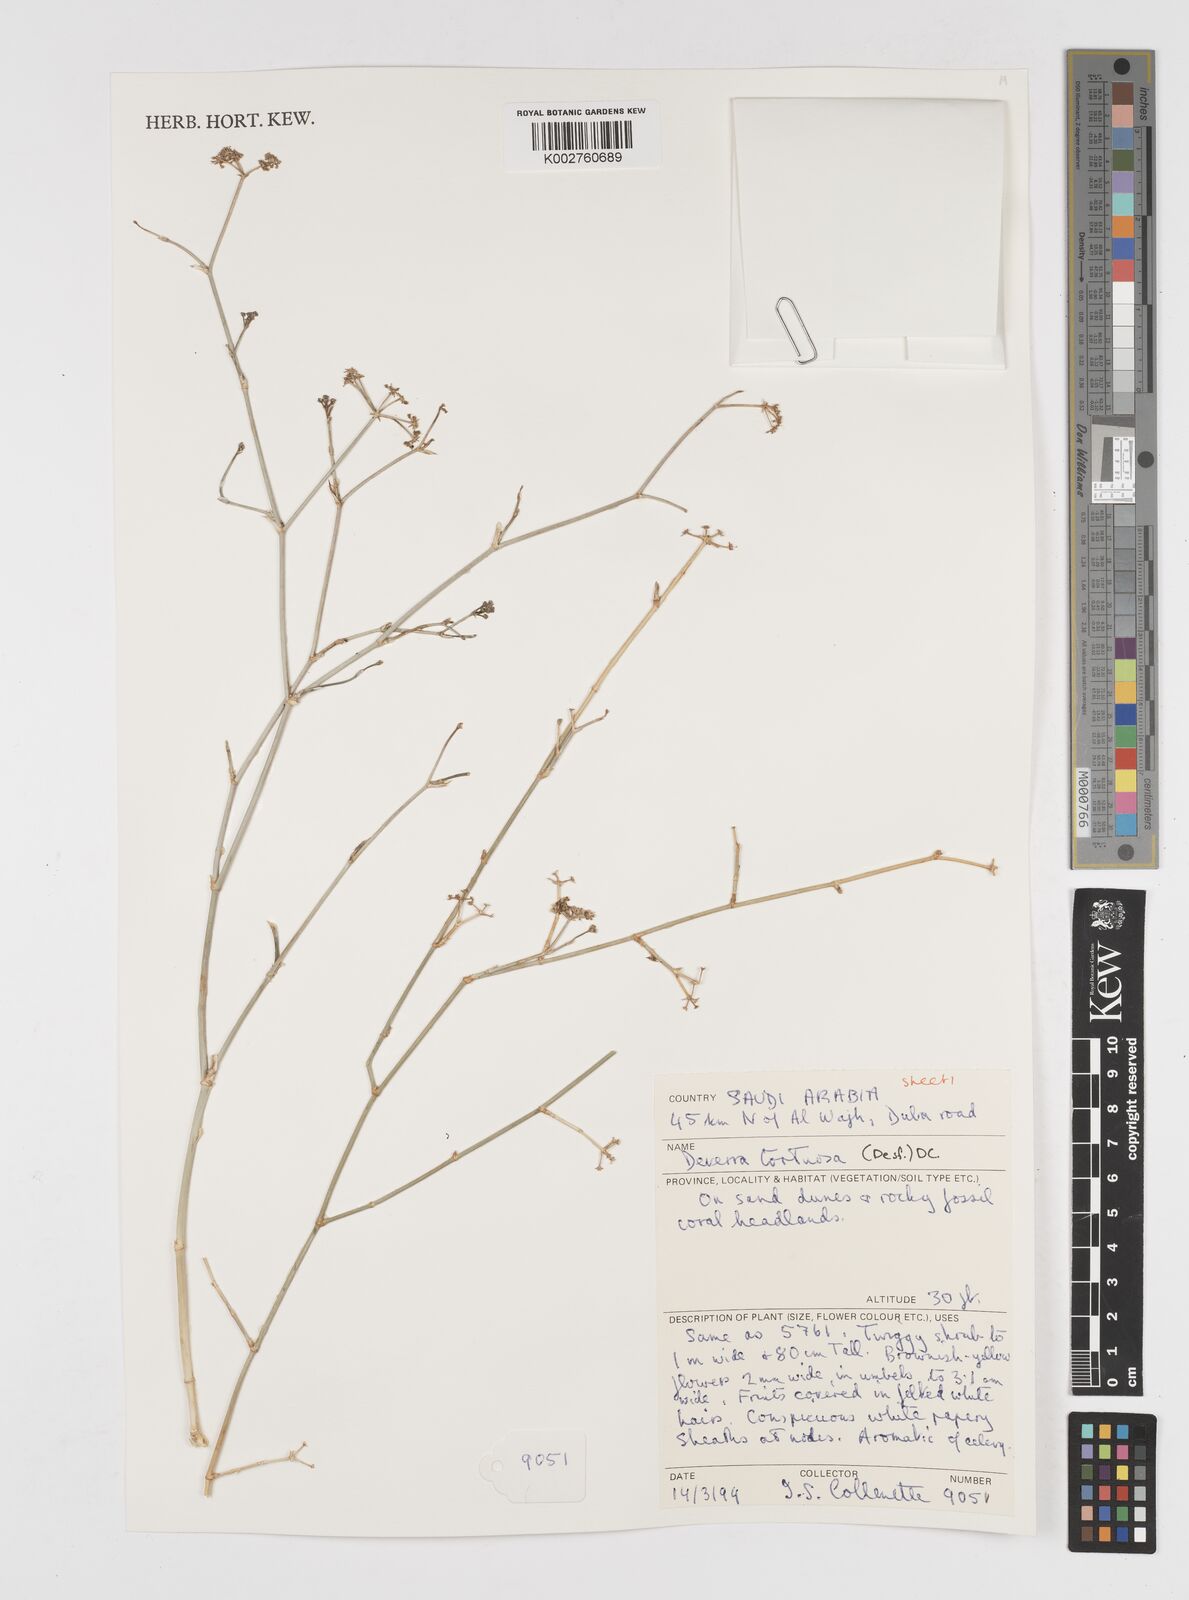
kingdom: Plantae
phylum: Tracheophyta
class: Magnoliopsida
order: Apiales
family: Apiaceae
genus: Deverra
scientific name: Deverra tortuosa
